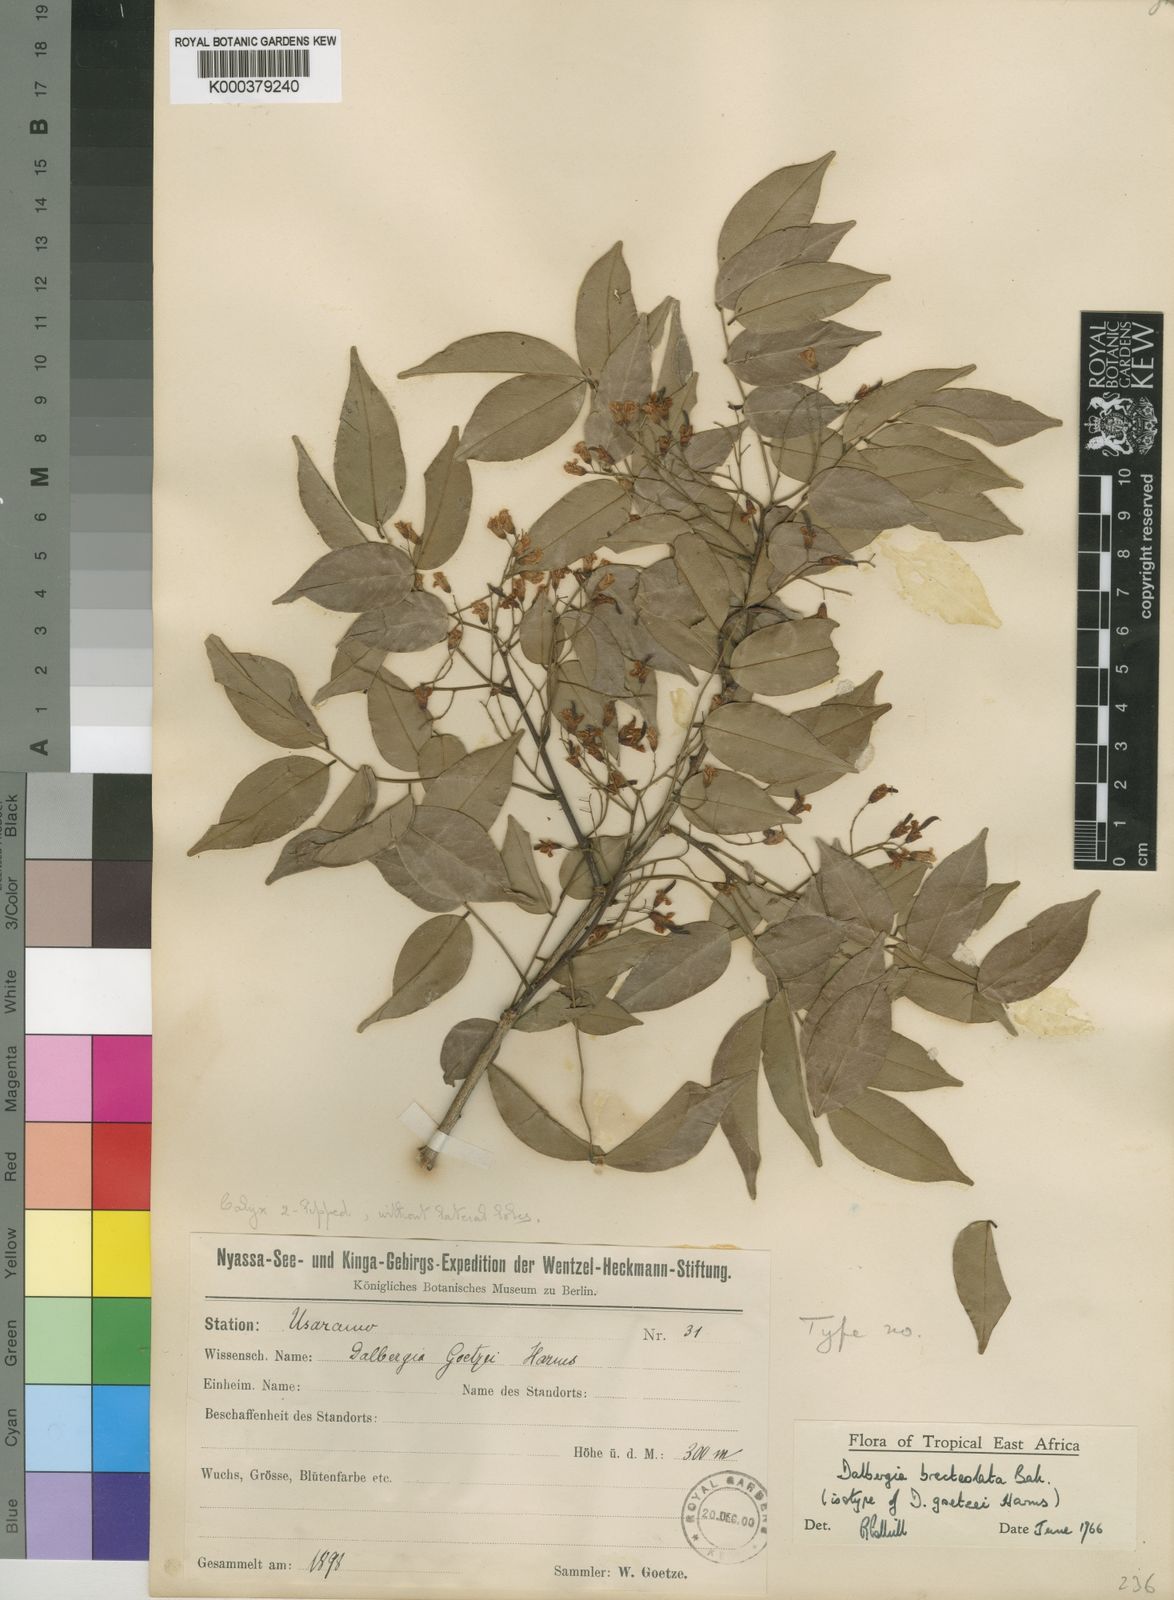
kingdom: Plantae
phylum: Tracheophyta
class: Magnoliopsida
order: Fabales
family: Fabaceae
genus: Dalbergia
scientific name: Dalbergia bracteolata
